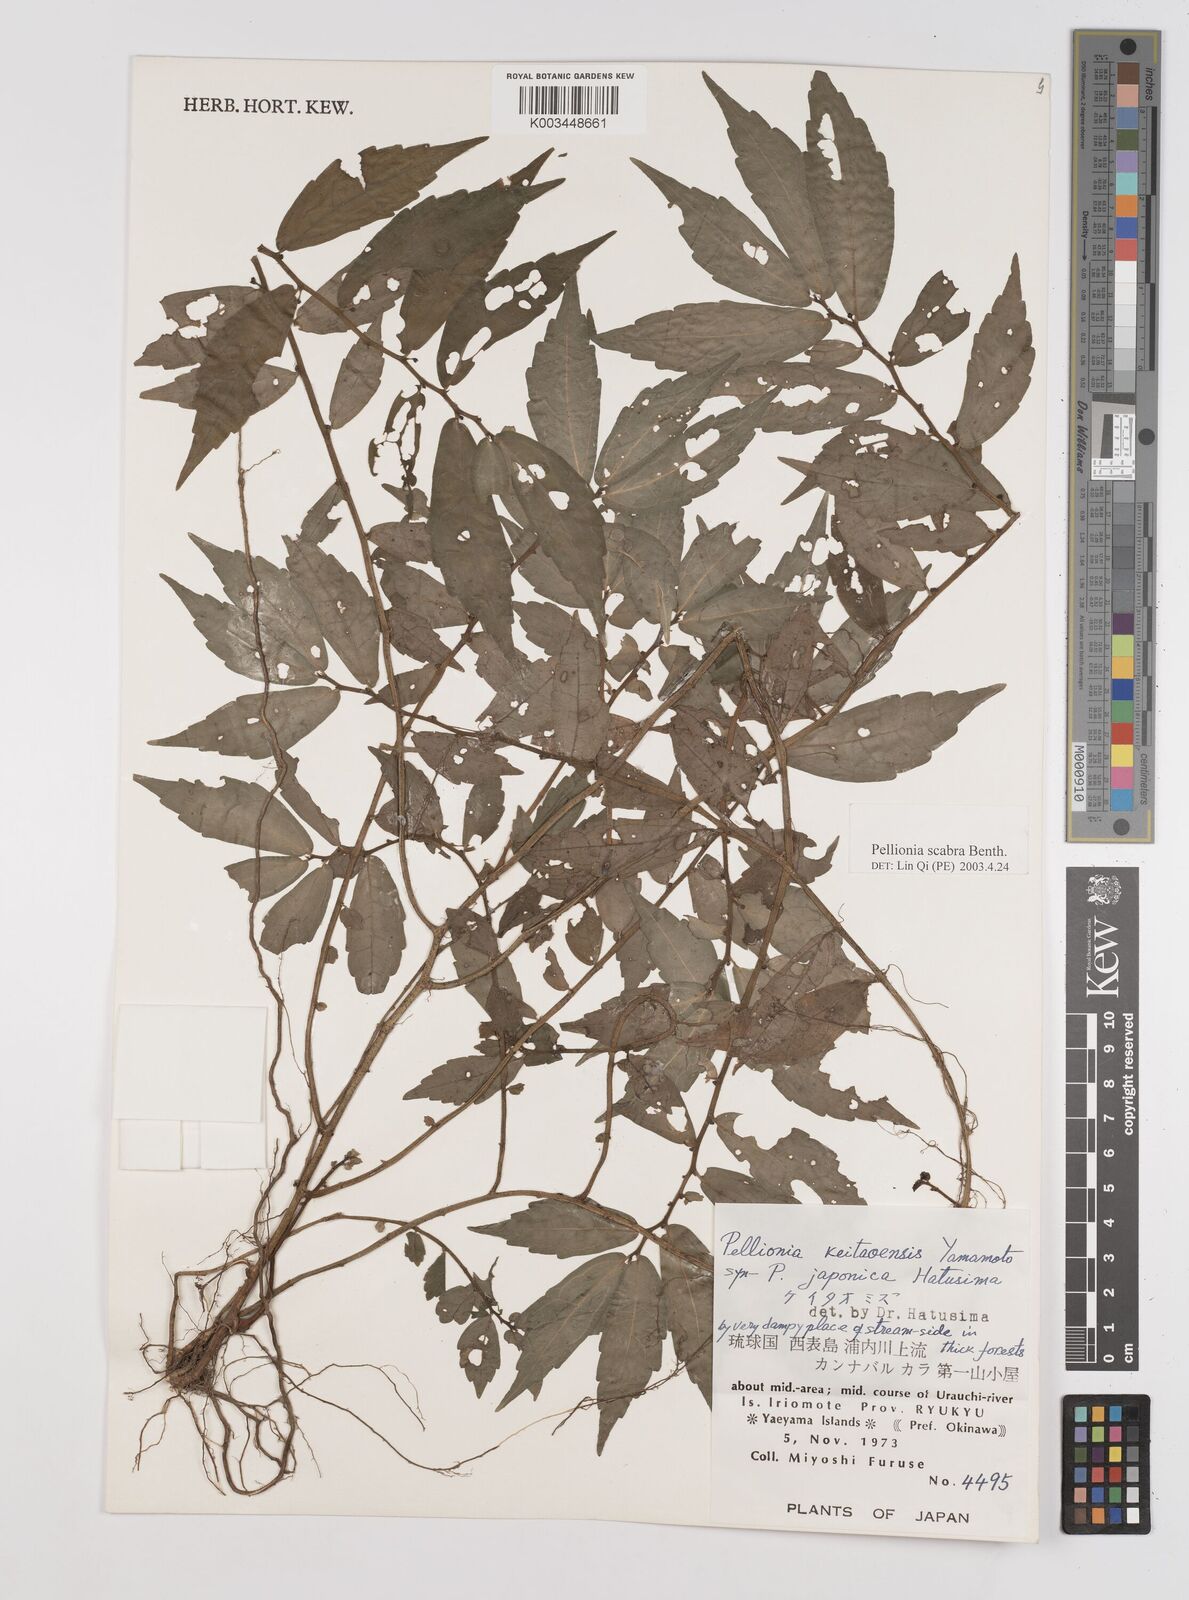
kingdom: Plantae
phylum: Tracheophyta
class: Magnoliopsida
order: Rosales
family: Urticaceae
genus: Elatostema
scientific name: Elatostema
